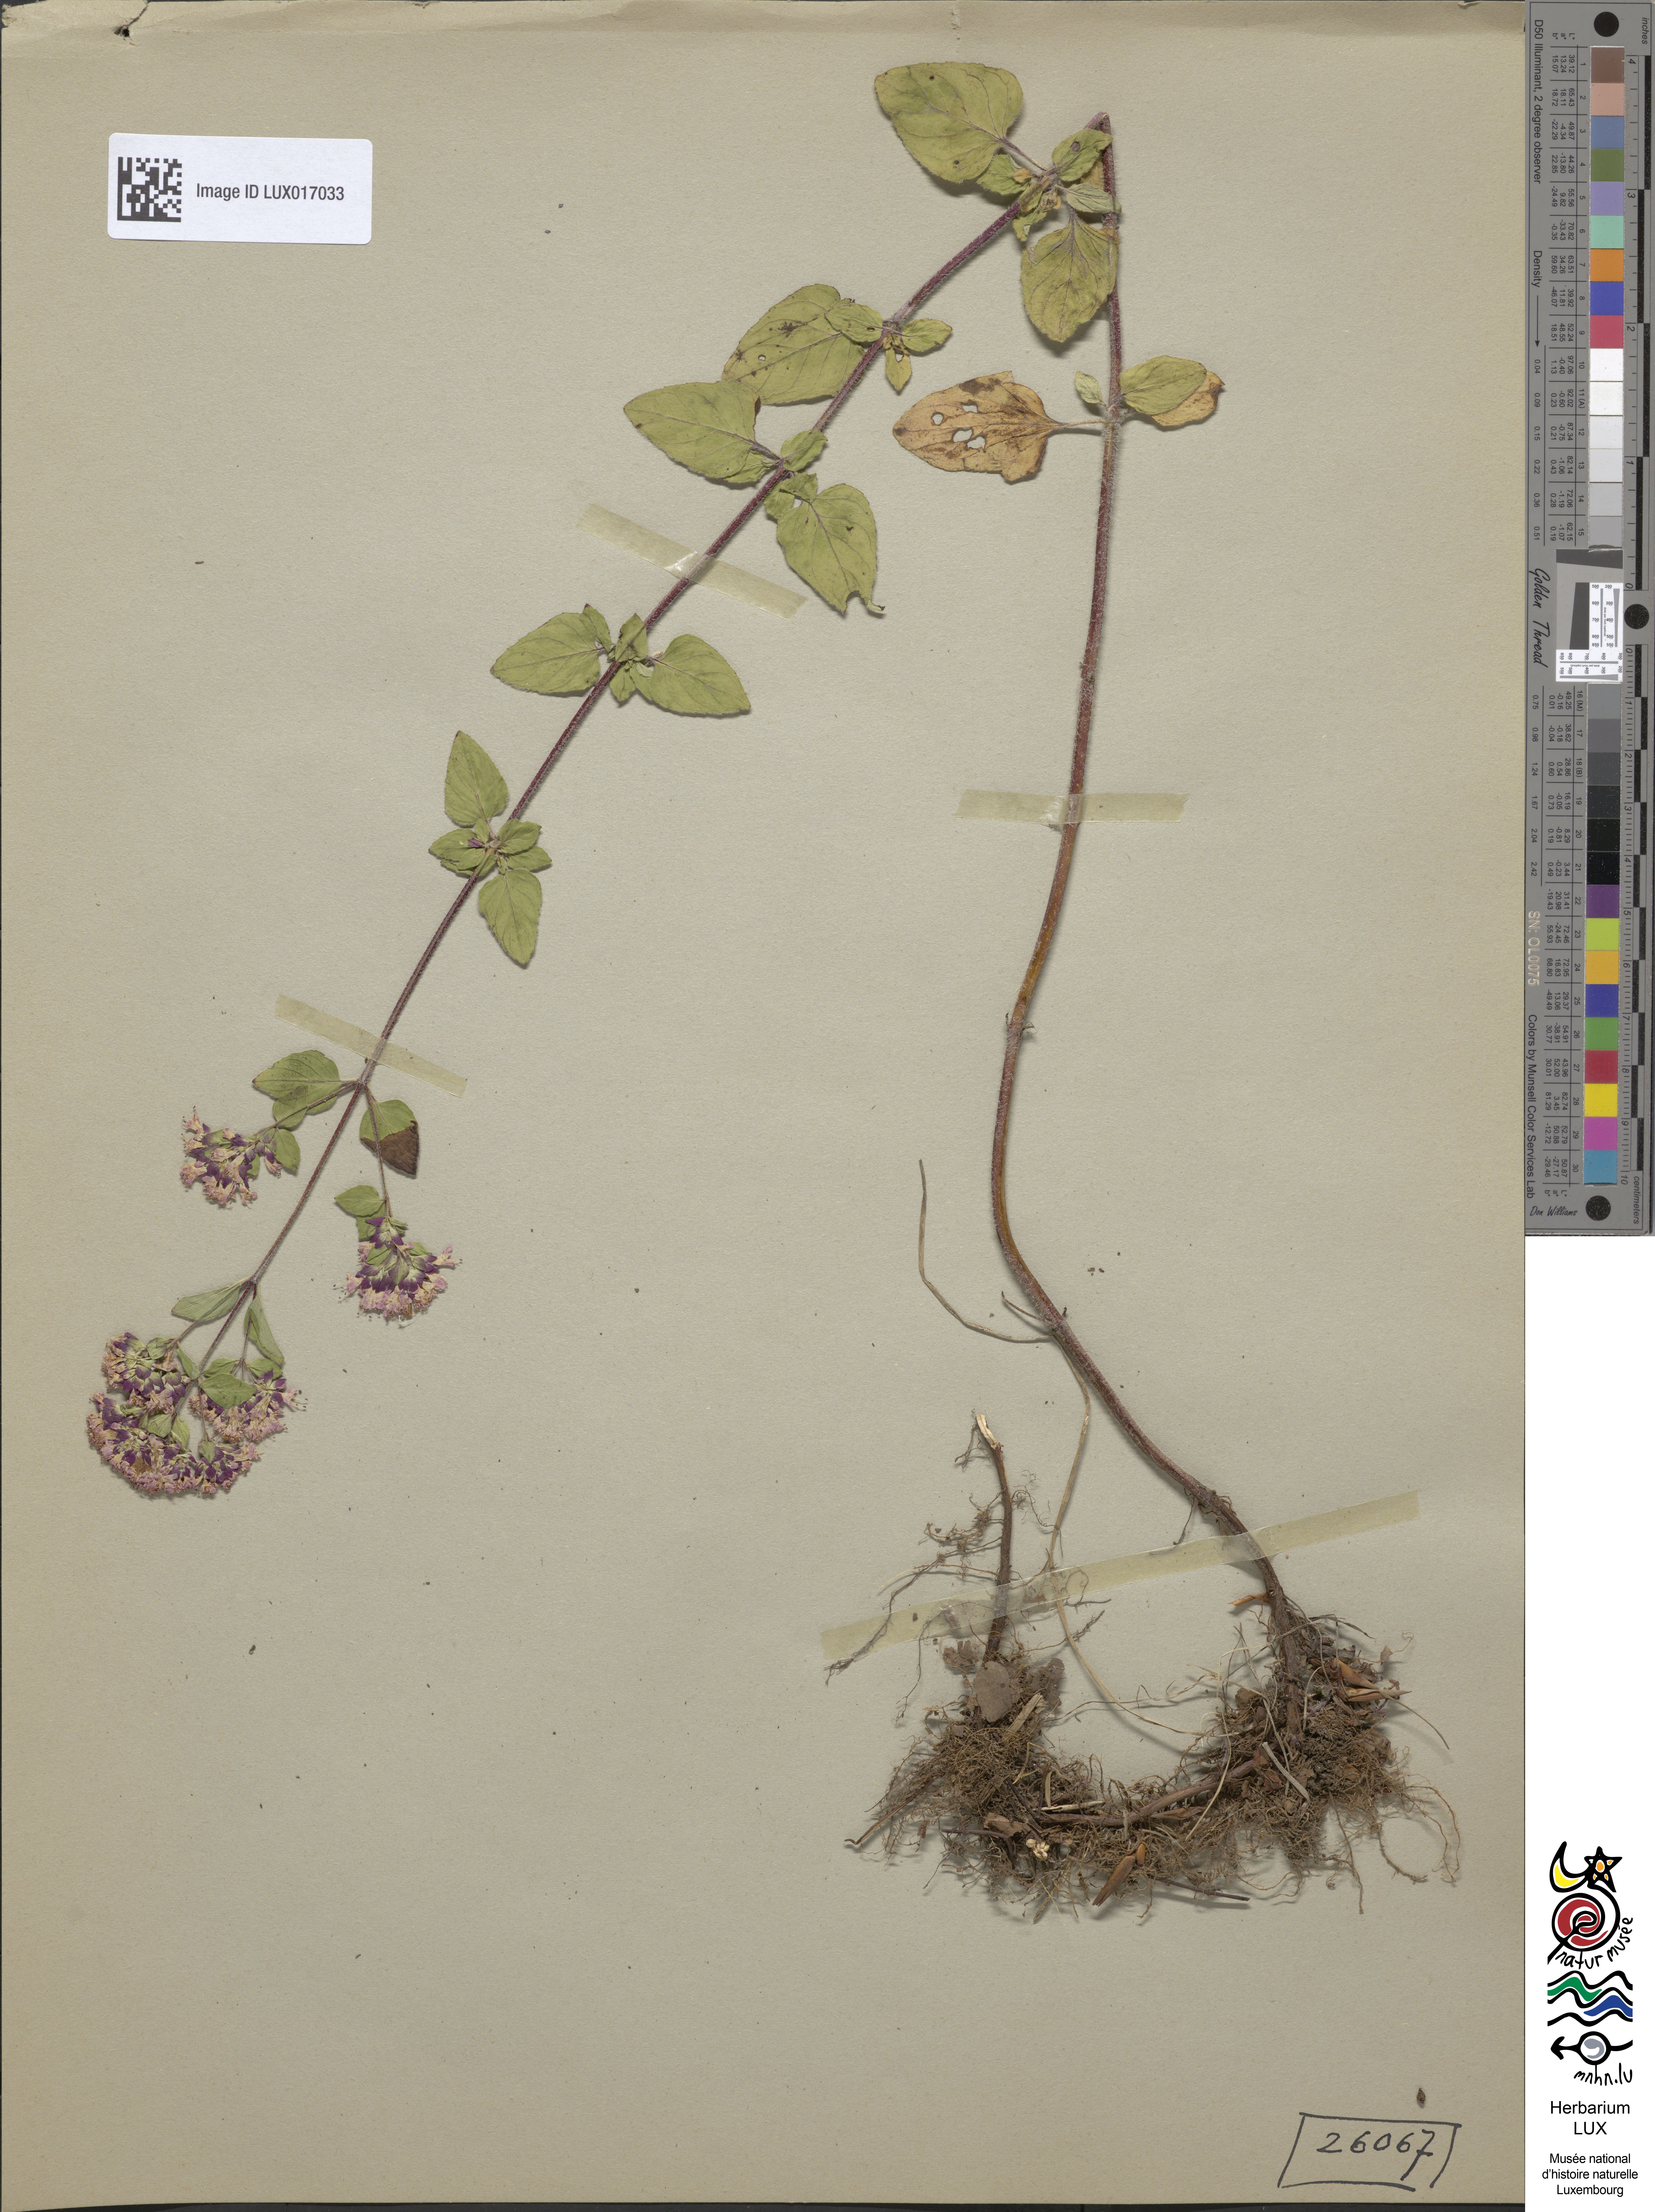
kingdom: Plantae
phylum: Tracheophyta
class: Magnoliopsida
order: Lamiales
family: Lamiaceae
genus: Origanum
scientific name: Origanum vulgare
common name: Wild marjoram
